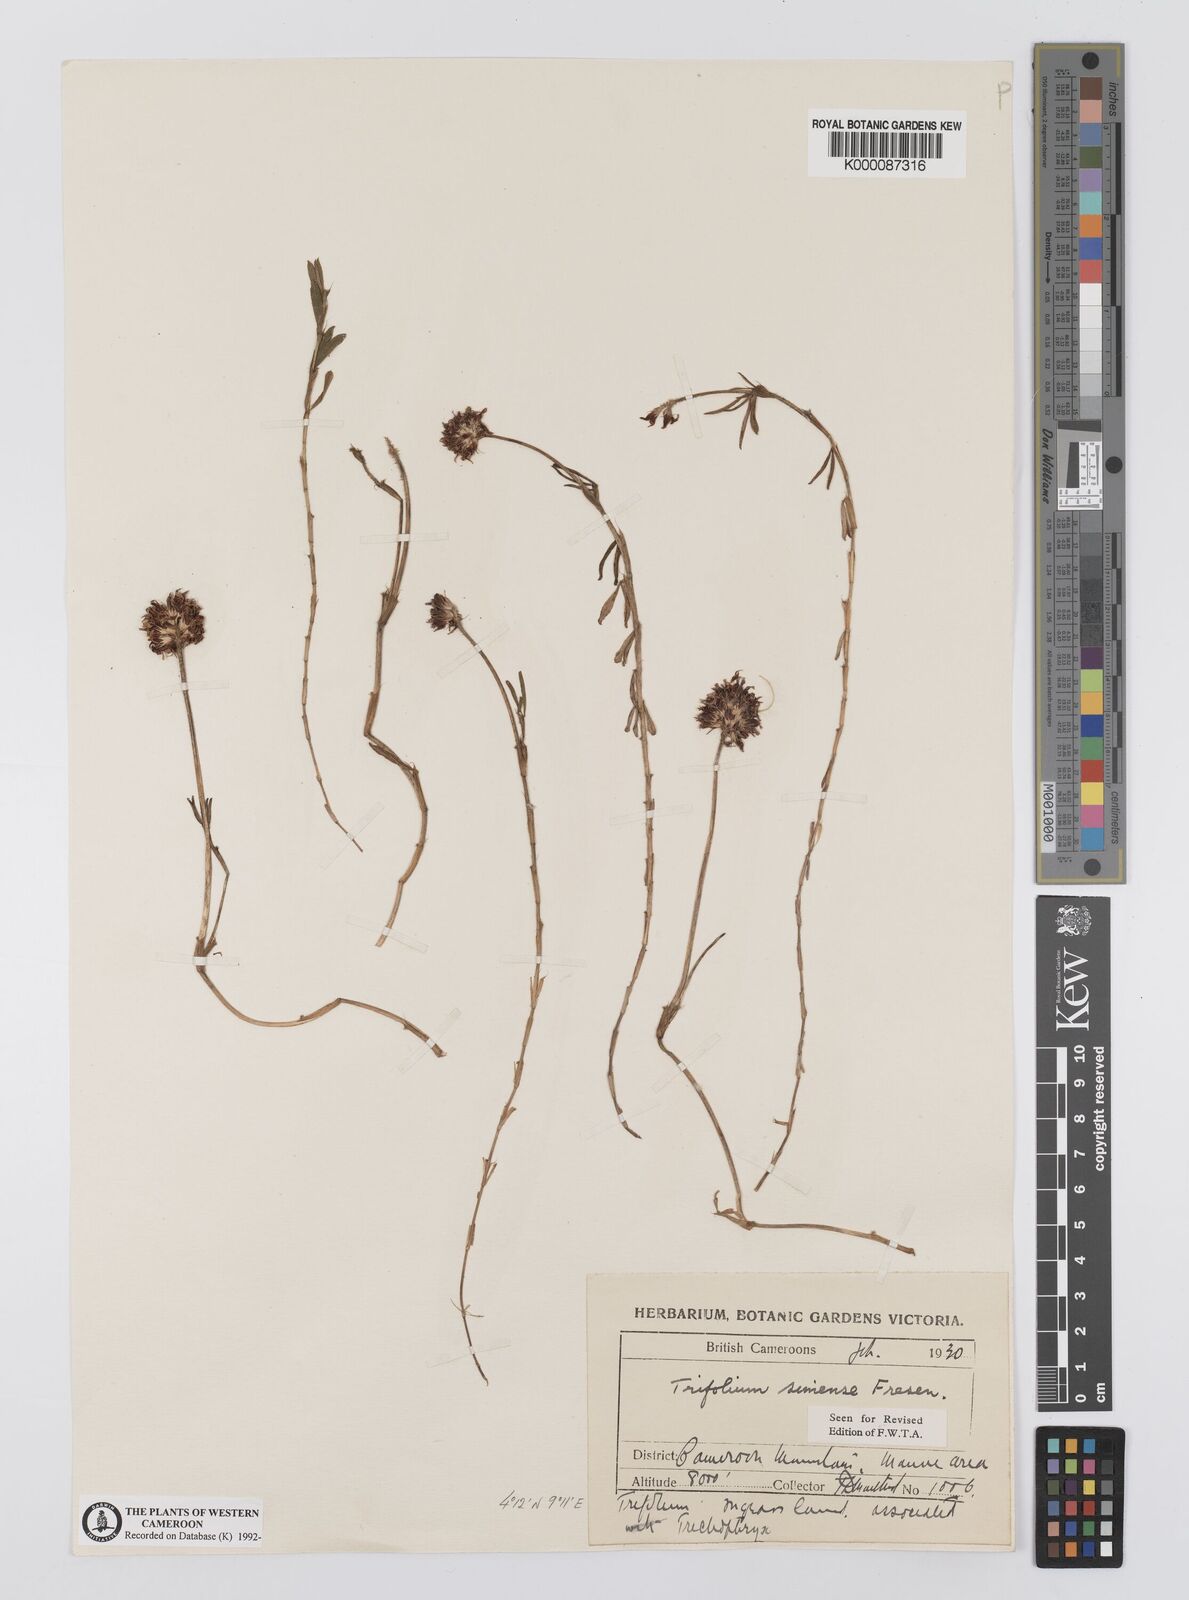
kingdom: Plantae
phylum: Tracheophyta
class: Magnoliopsida
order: Fabales
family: Fabaceae
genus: Trifolium
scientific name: Trifolium simense
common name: Simen clover
